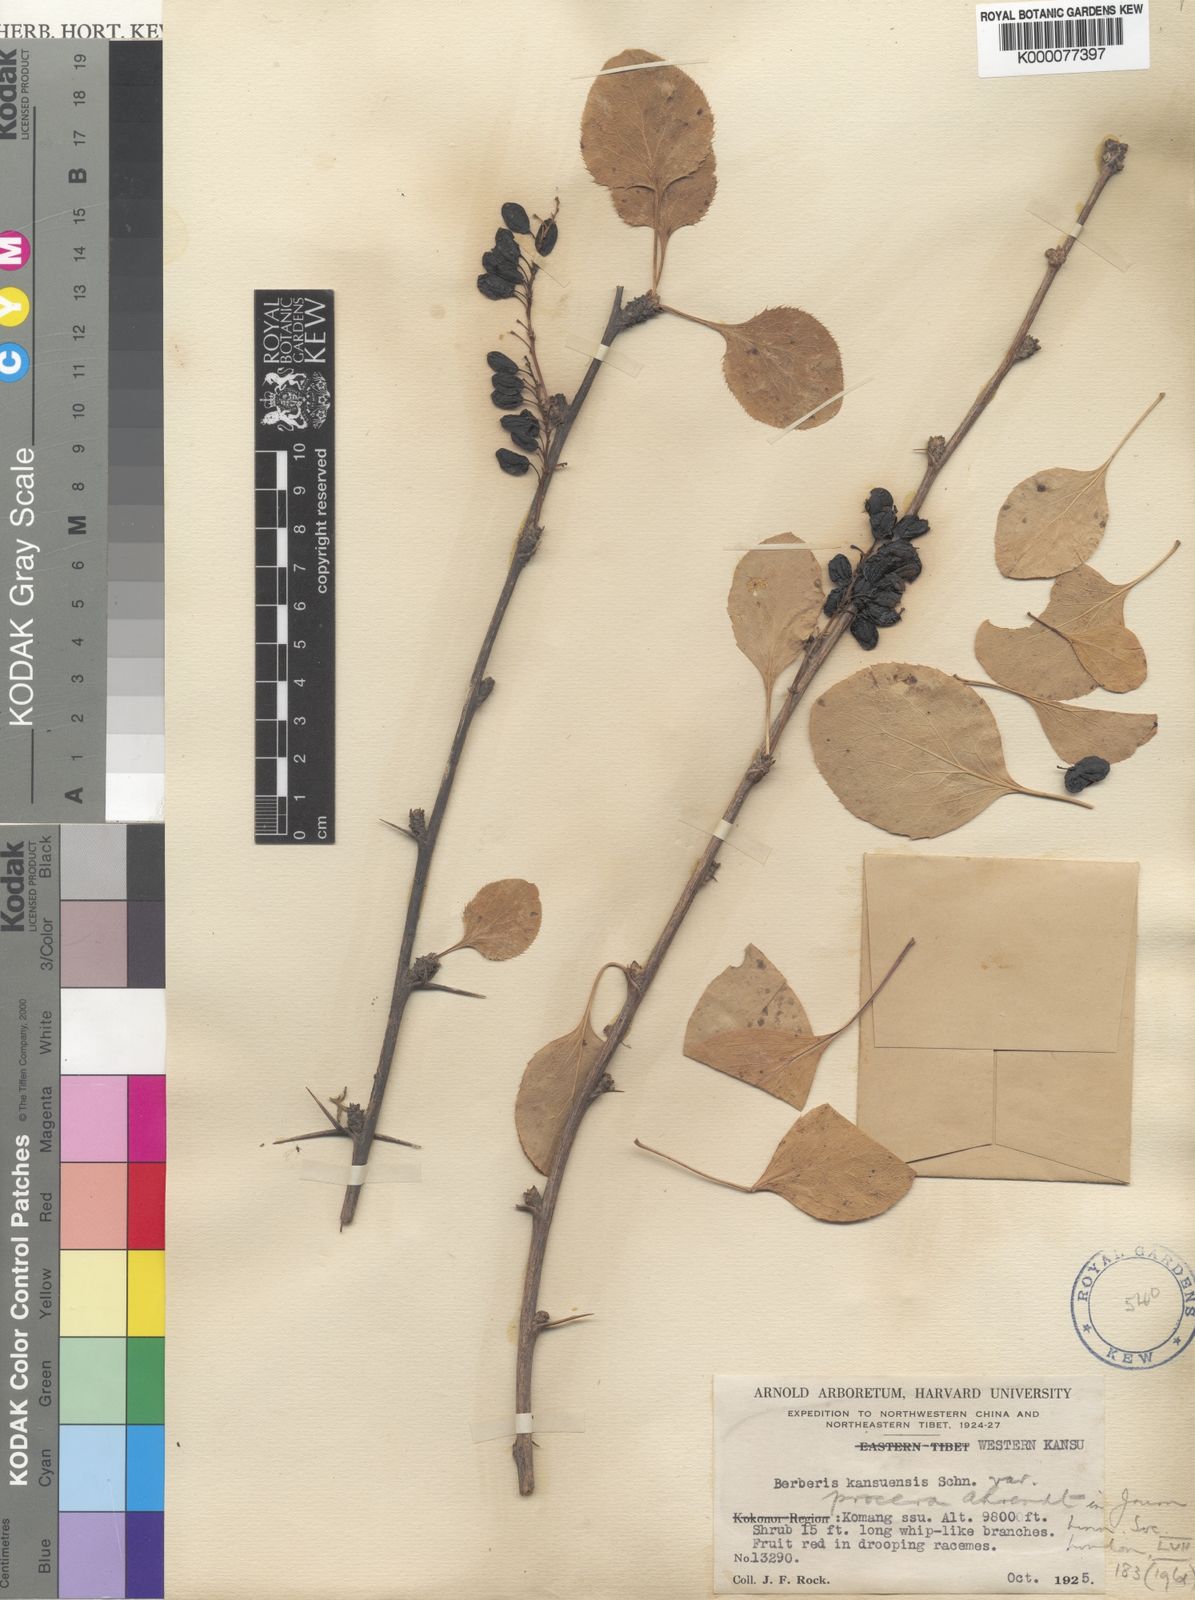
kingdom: Plantae
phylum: Tracheophyta
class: Magnoliopsida
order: Ranunculales
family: Berberidaceae
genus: Berberis
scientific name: Berberis dasystachya
